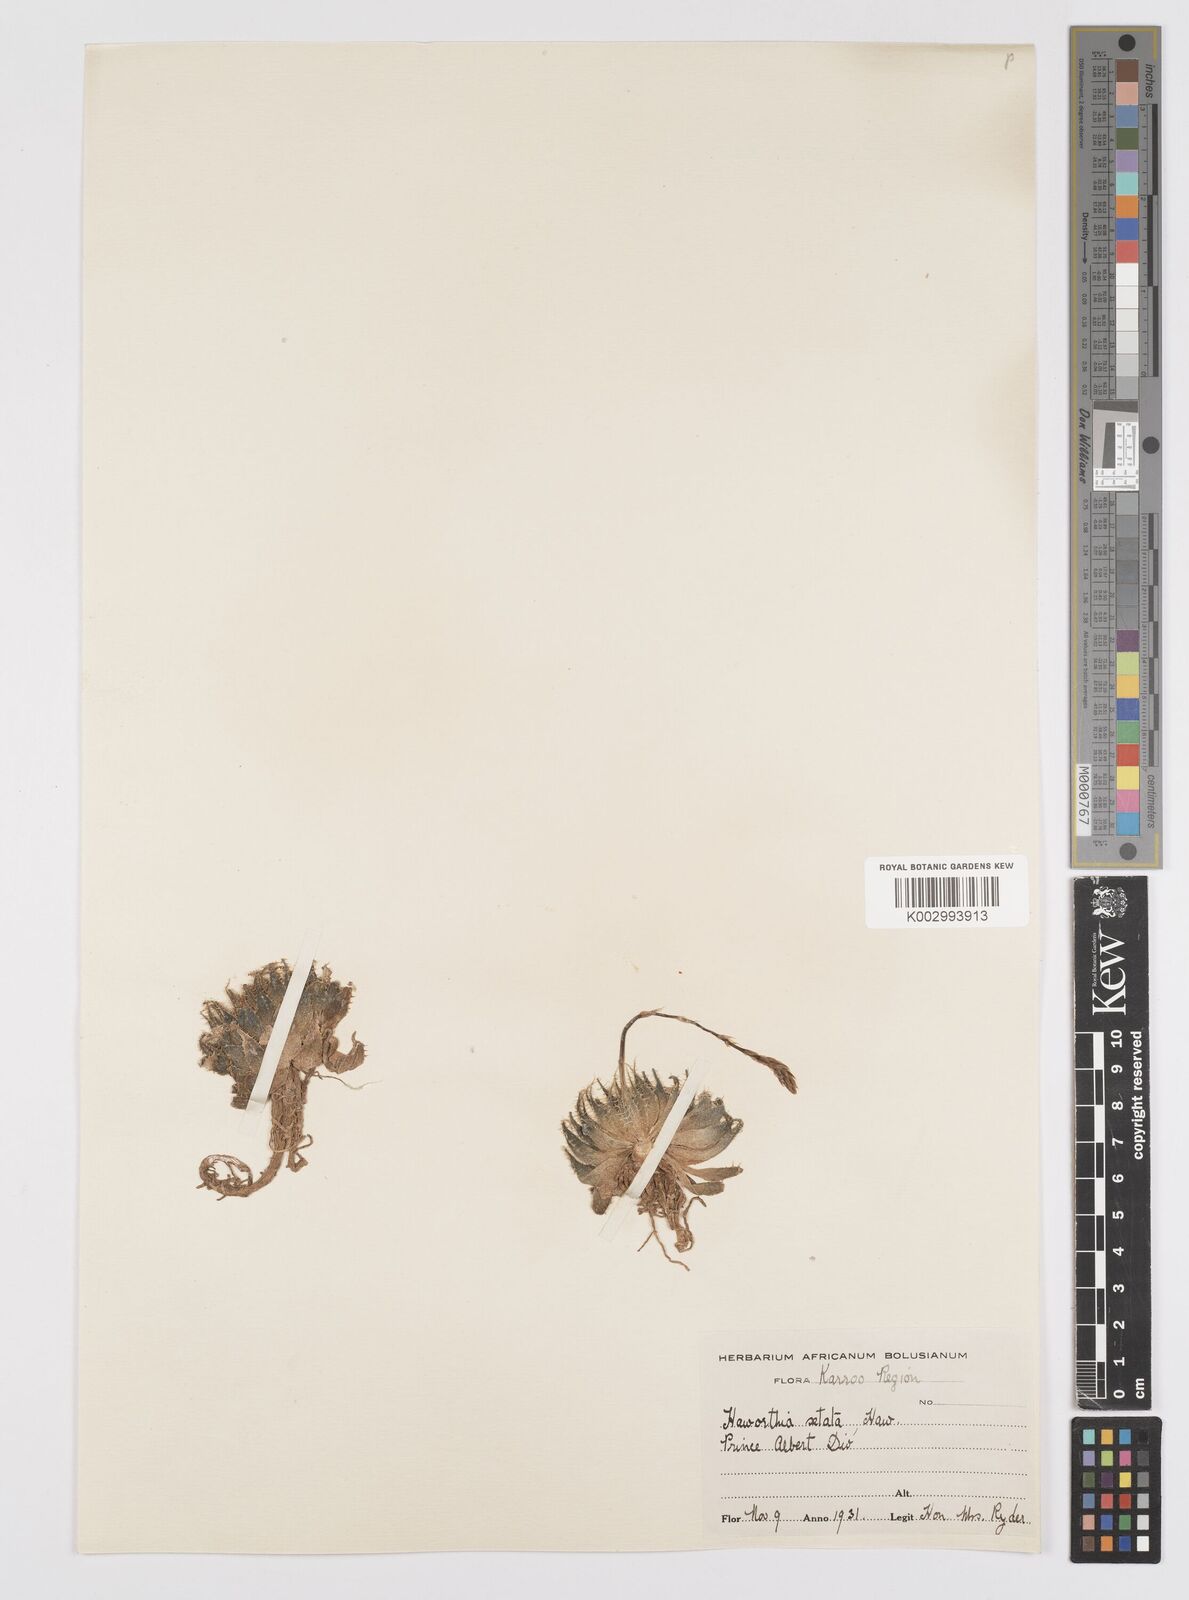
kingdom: Plantae
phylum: Tracheophyta
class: Liliopsida
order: Asparagales
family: Asphodelaceae
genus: Haworthia
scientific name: Haworthia arachnoidea
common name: Cobweb-aloe
